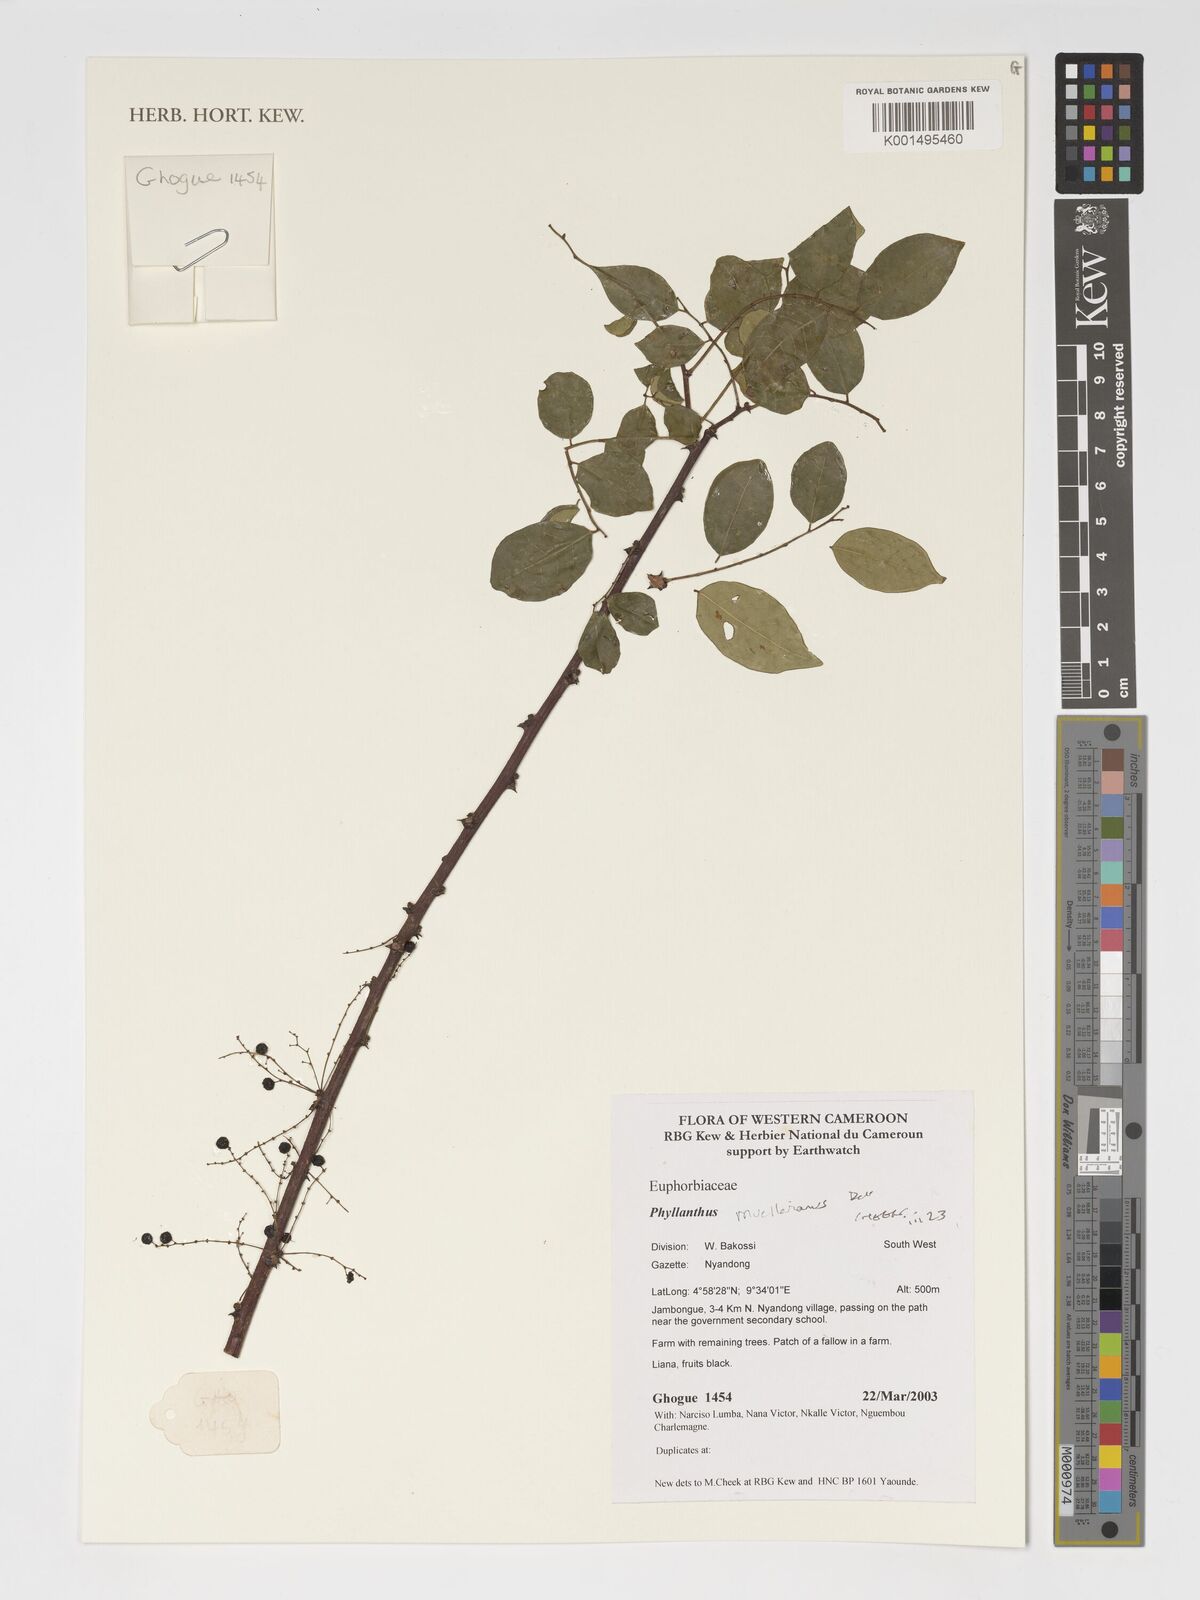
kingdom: Plantae
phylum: Tracheophyta
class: Magnoliopsida
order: Malpighiales
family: Phyllanthaceae
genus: Phyllanthus
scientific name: Phyllanthus muellerianus
